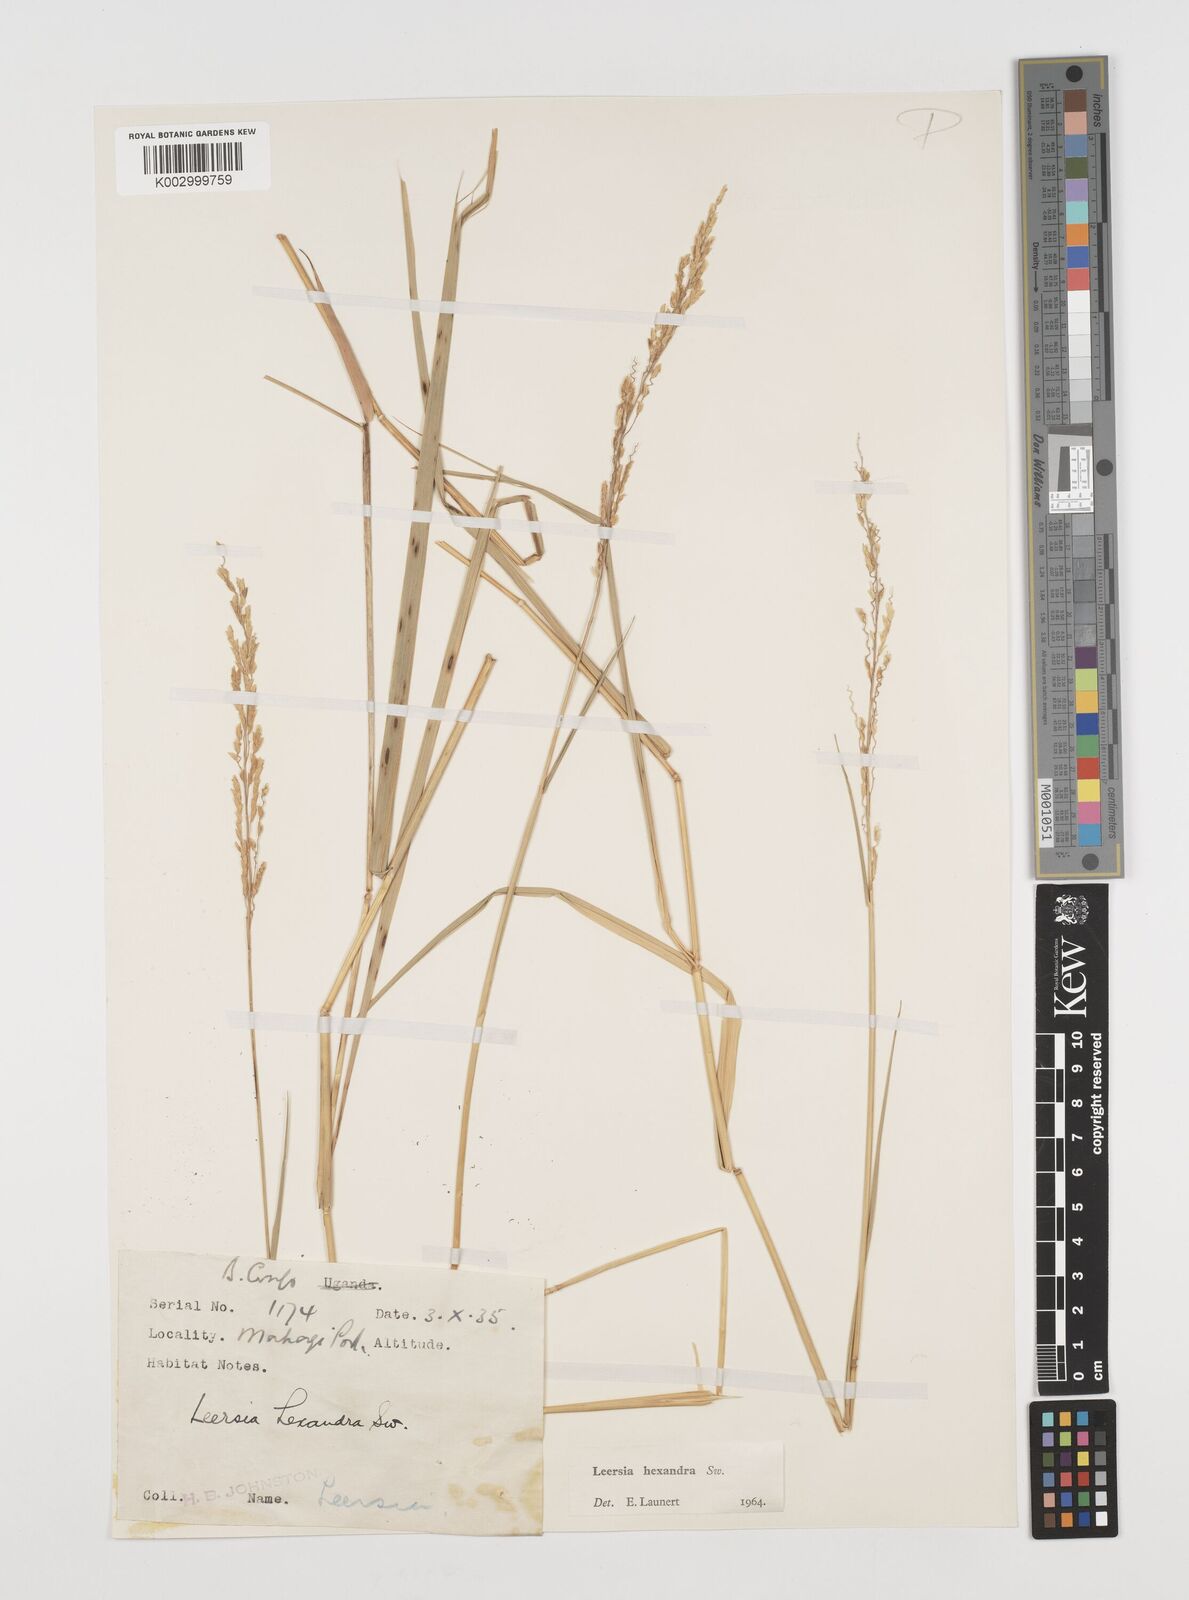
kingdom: Plantae
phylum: Tracheophyta
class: Liliopsida
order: Poales
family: Poaceae
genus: Leersia
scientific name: Leersia hexandra
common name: Southern cut grass
